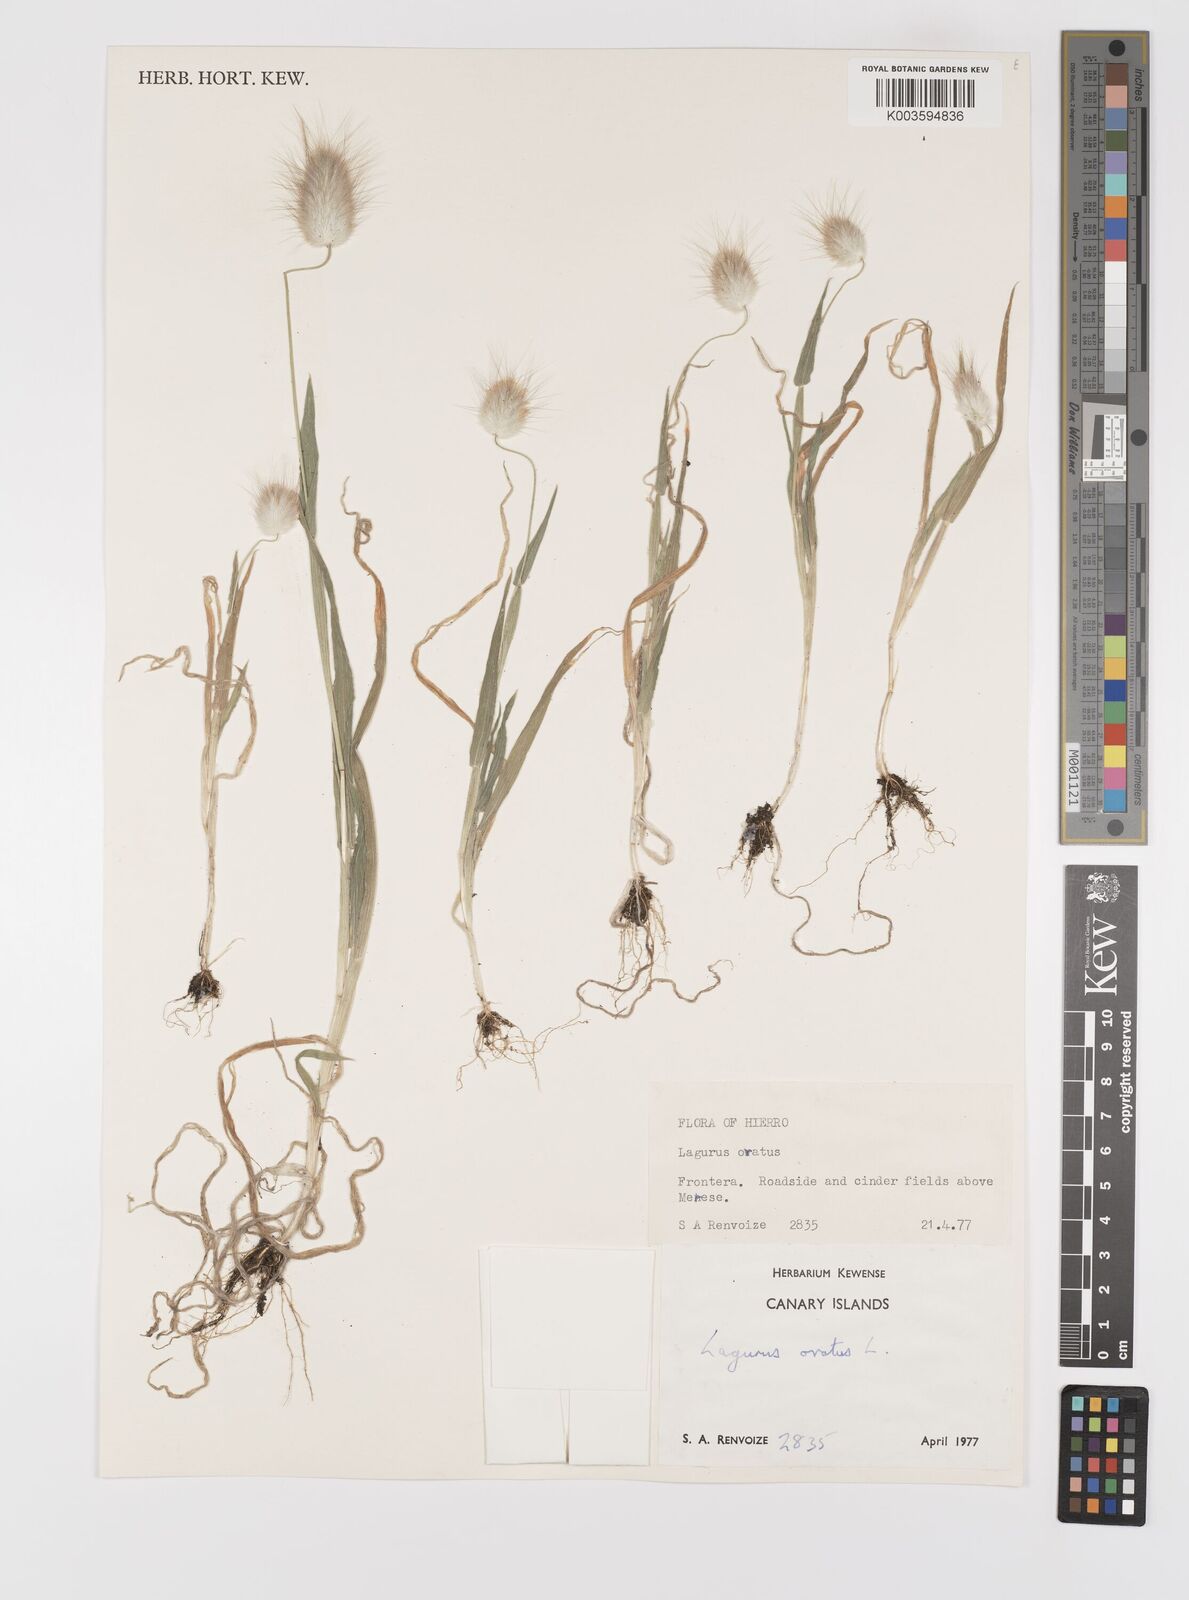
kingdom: Plantae
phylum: Tracheophyta
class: Liliopsida
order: Poales
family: Poaceae
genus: Lagurus
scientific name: Lagurus ovatus
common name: Hare's-tail
